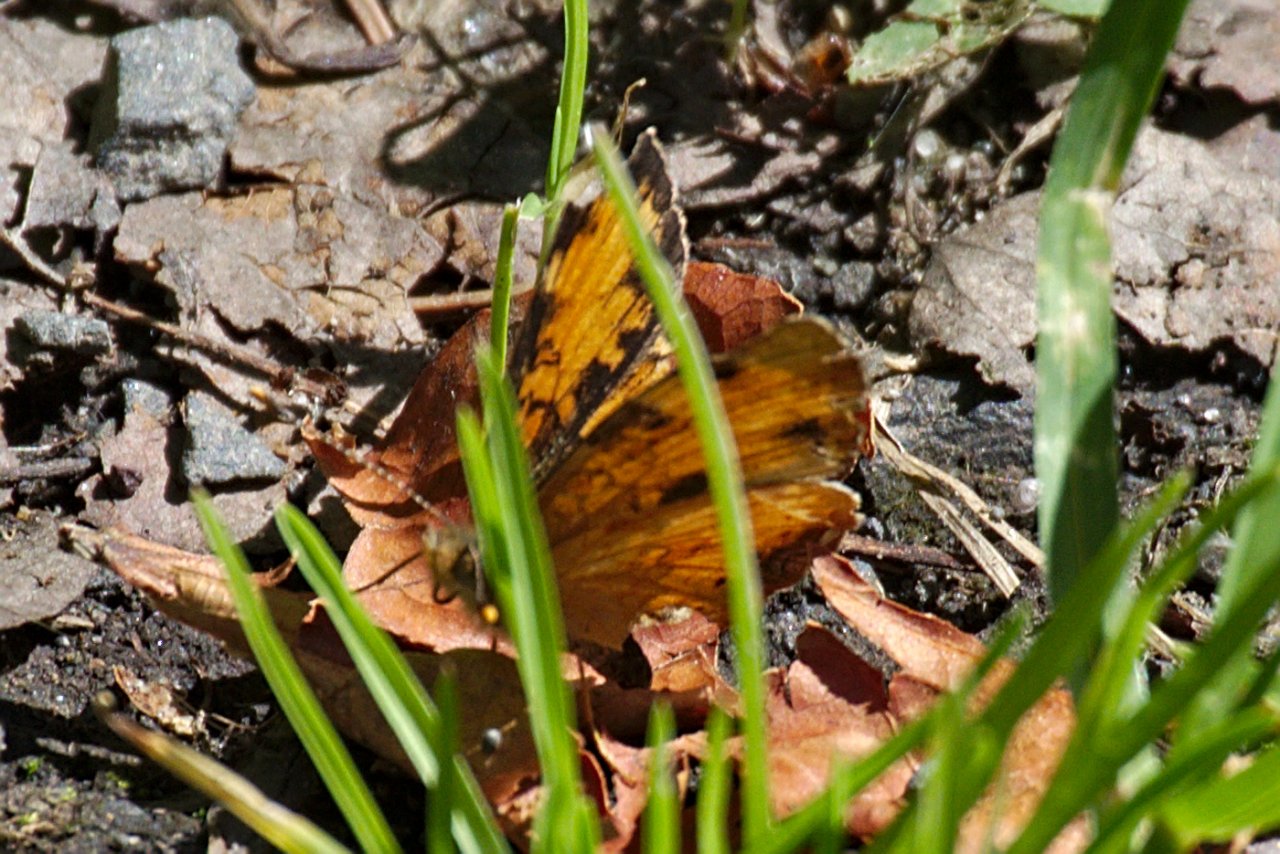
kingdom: Animalia
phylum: Arthropoda
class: Insecta
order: Lepidoptera
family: Nymphalidae
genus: Phyciodes
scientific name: Phyciodes tharos
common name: Northern Crescent
